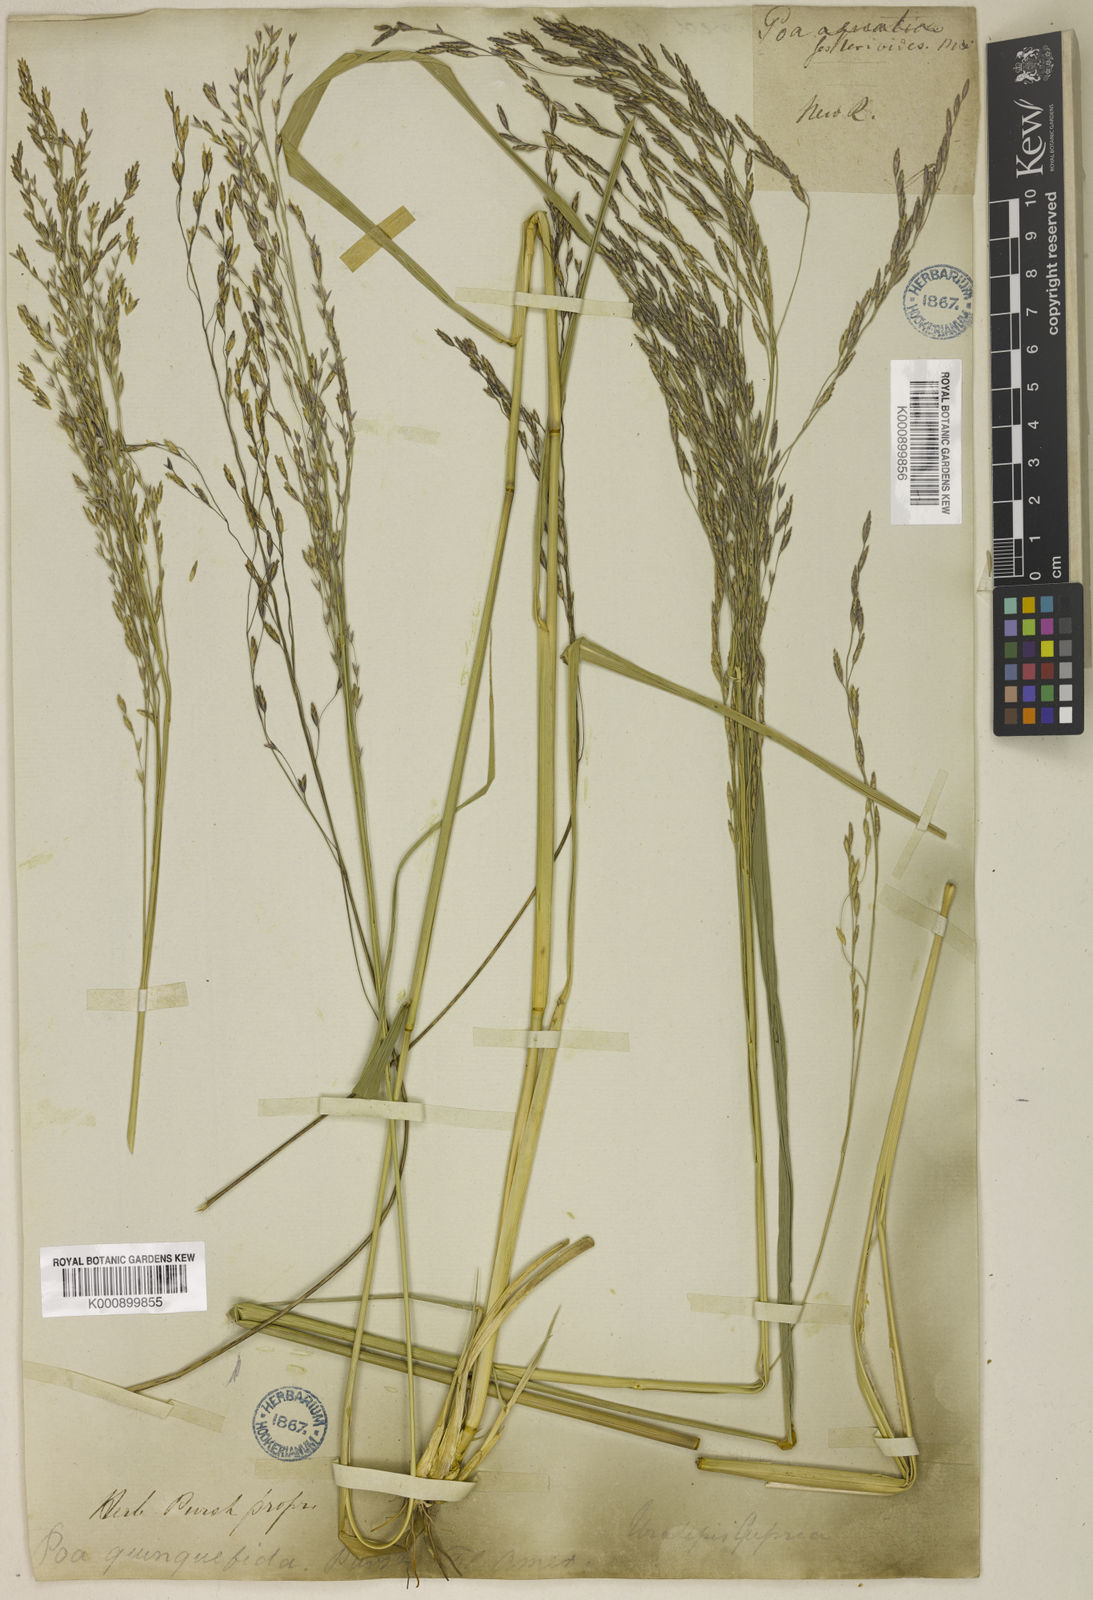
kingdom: Plantae
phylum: Tracheophyta
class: Liliopsida
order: Poales
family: Poaceae
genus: Tridens
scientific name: Tridens flavus
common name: Purpletop
